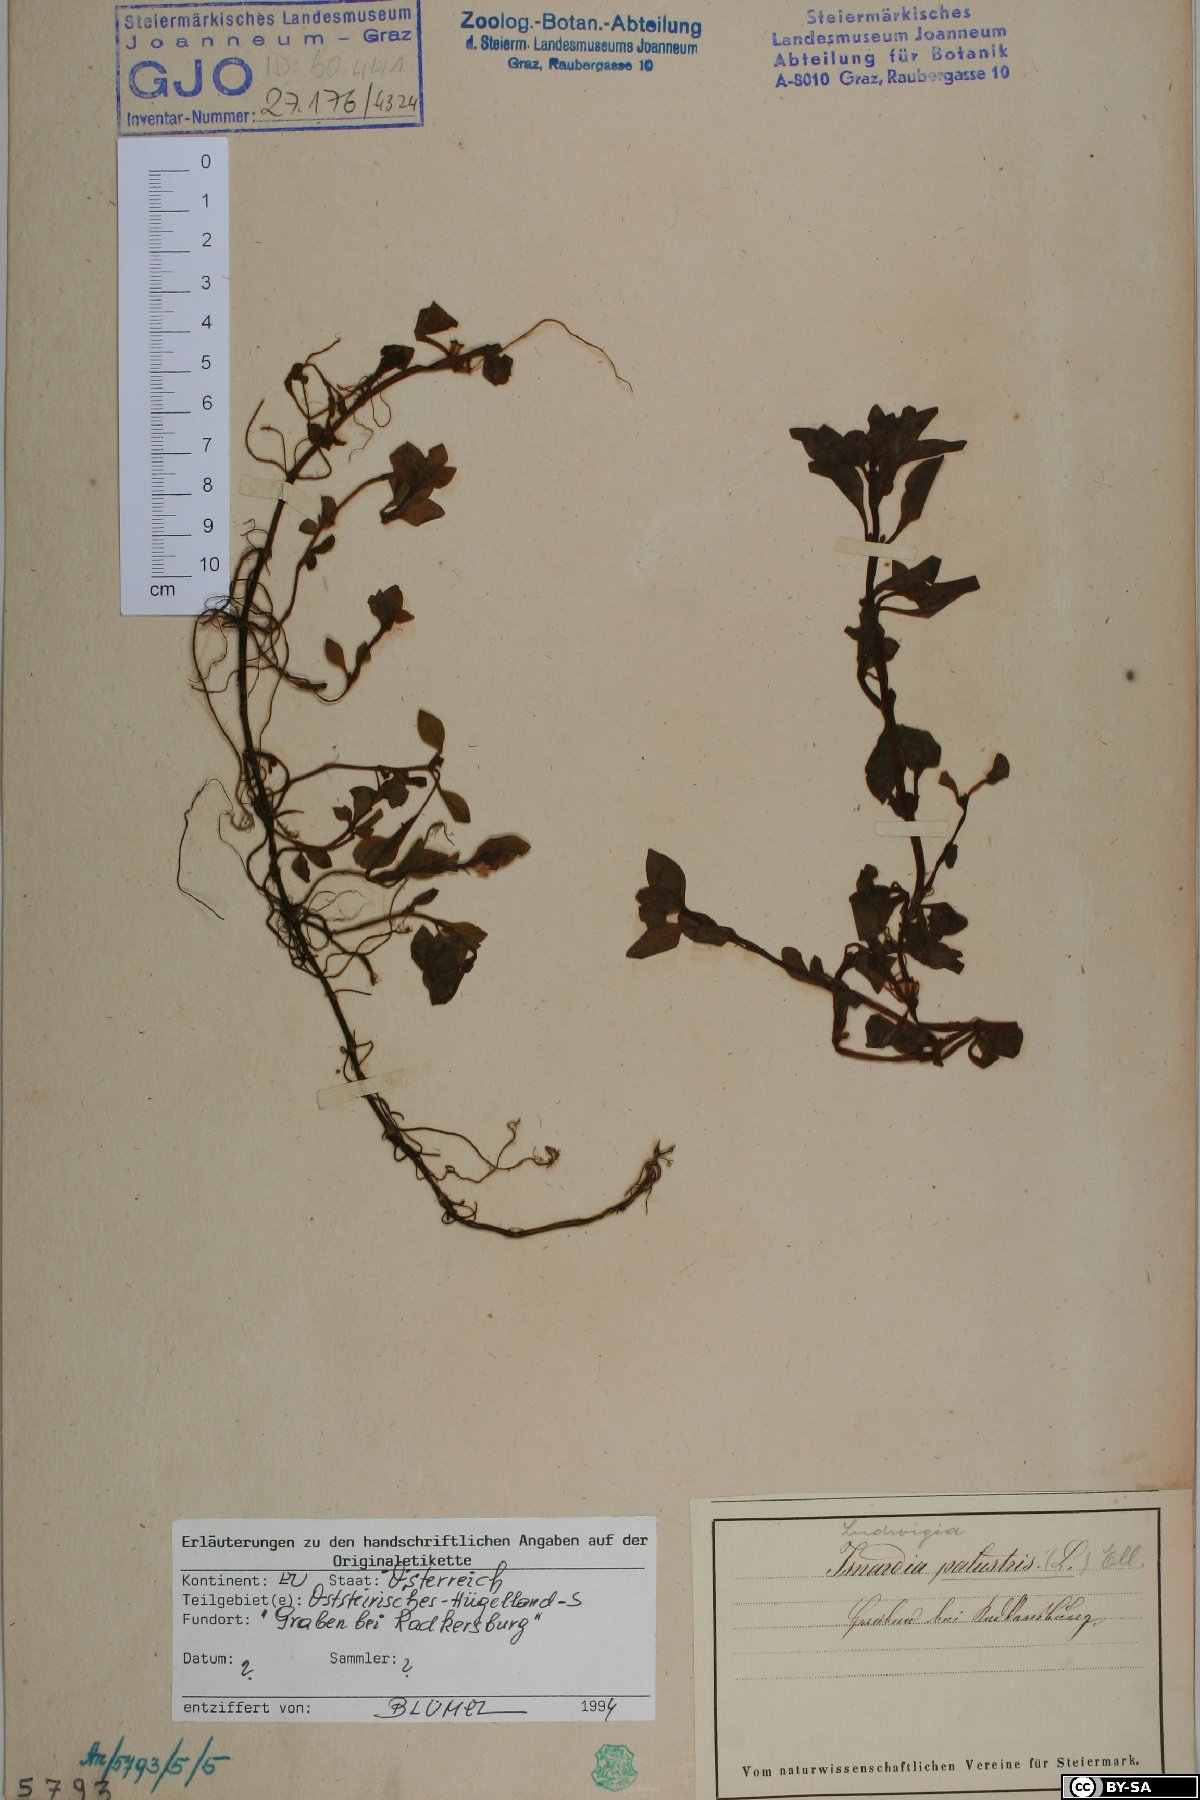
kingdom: Plantae
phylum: Tracheophyta
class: Magnoliopsida
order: Myrtales
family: Onagraceae
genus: Ludwigia
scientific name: Ludwigia palustris
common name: Hampshire-purslane
